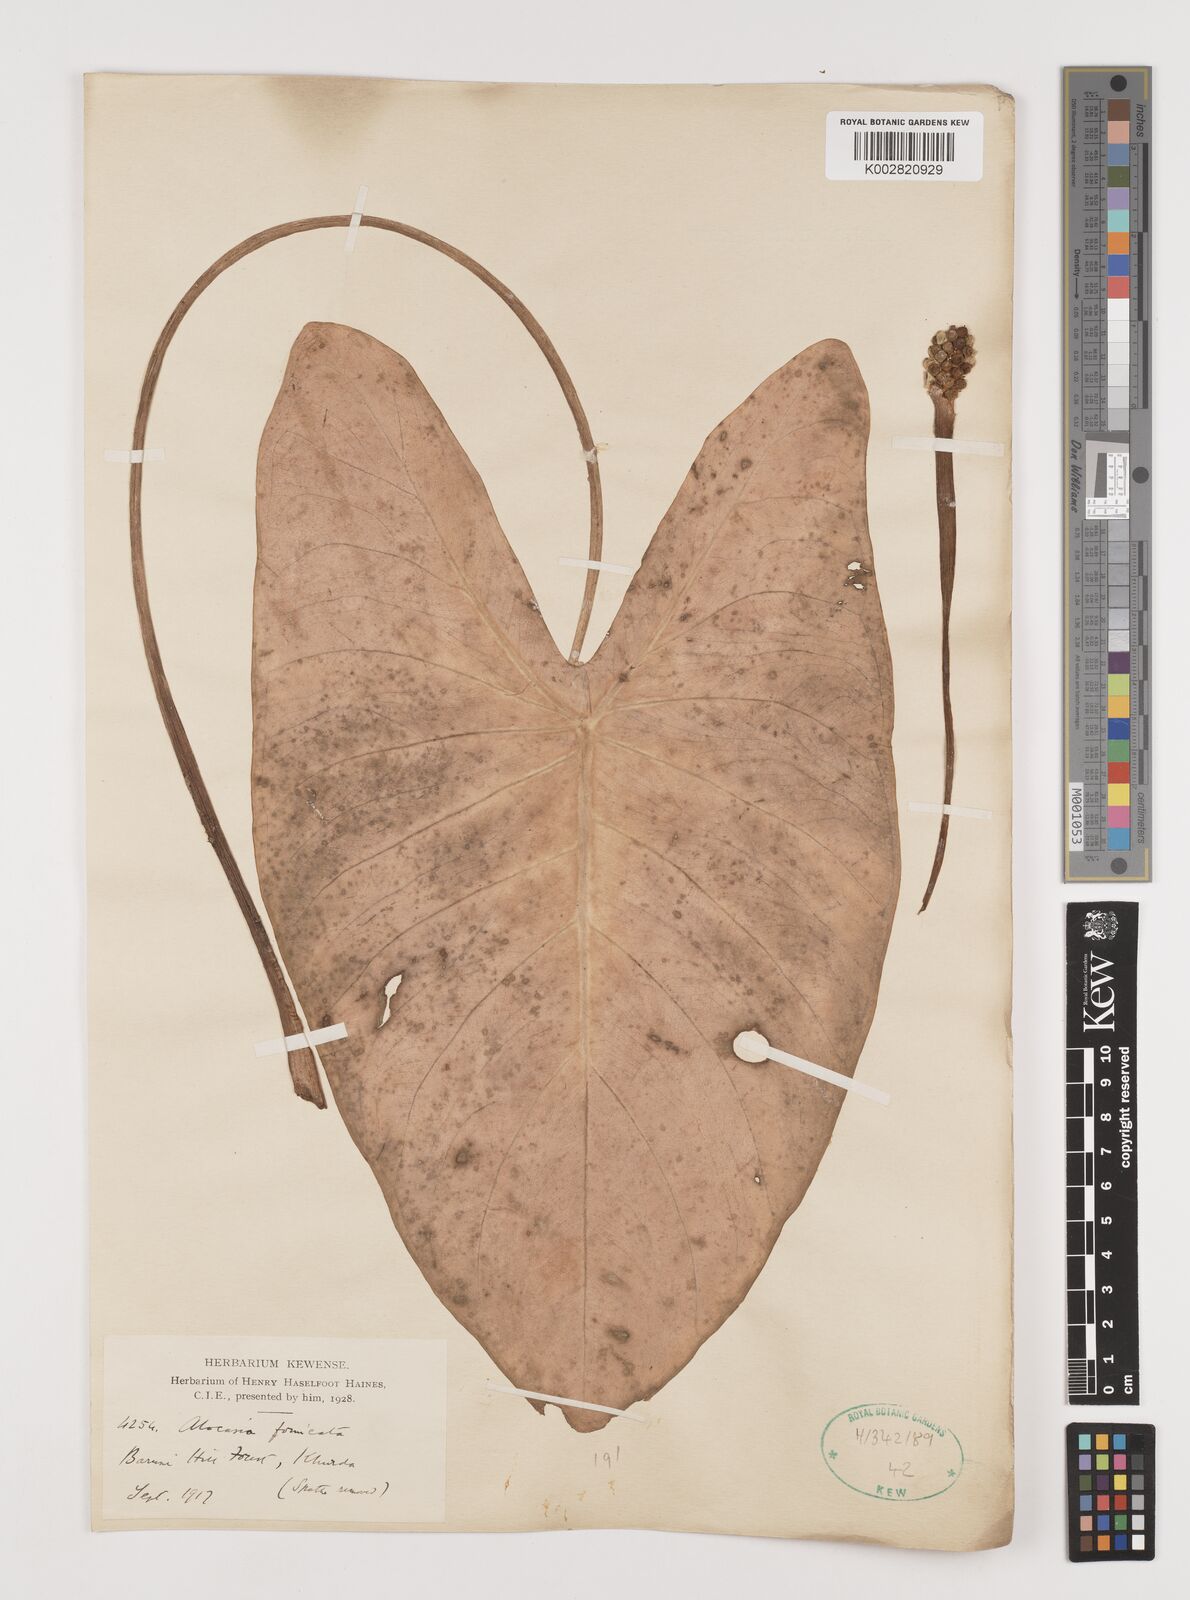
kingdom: Plantae
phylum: Tracheophyta
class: Liliopsida
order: Alismatales
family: Araceae
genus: Alocasia
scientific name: Alocasia fornicata
